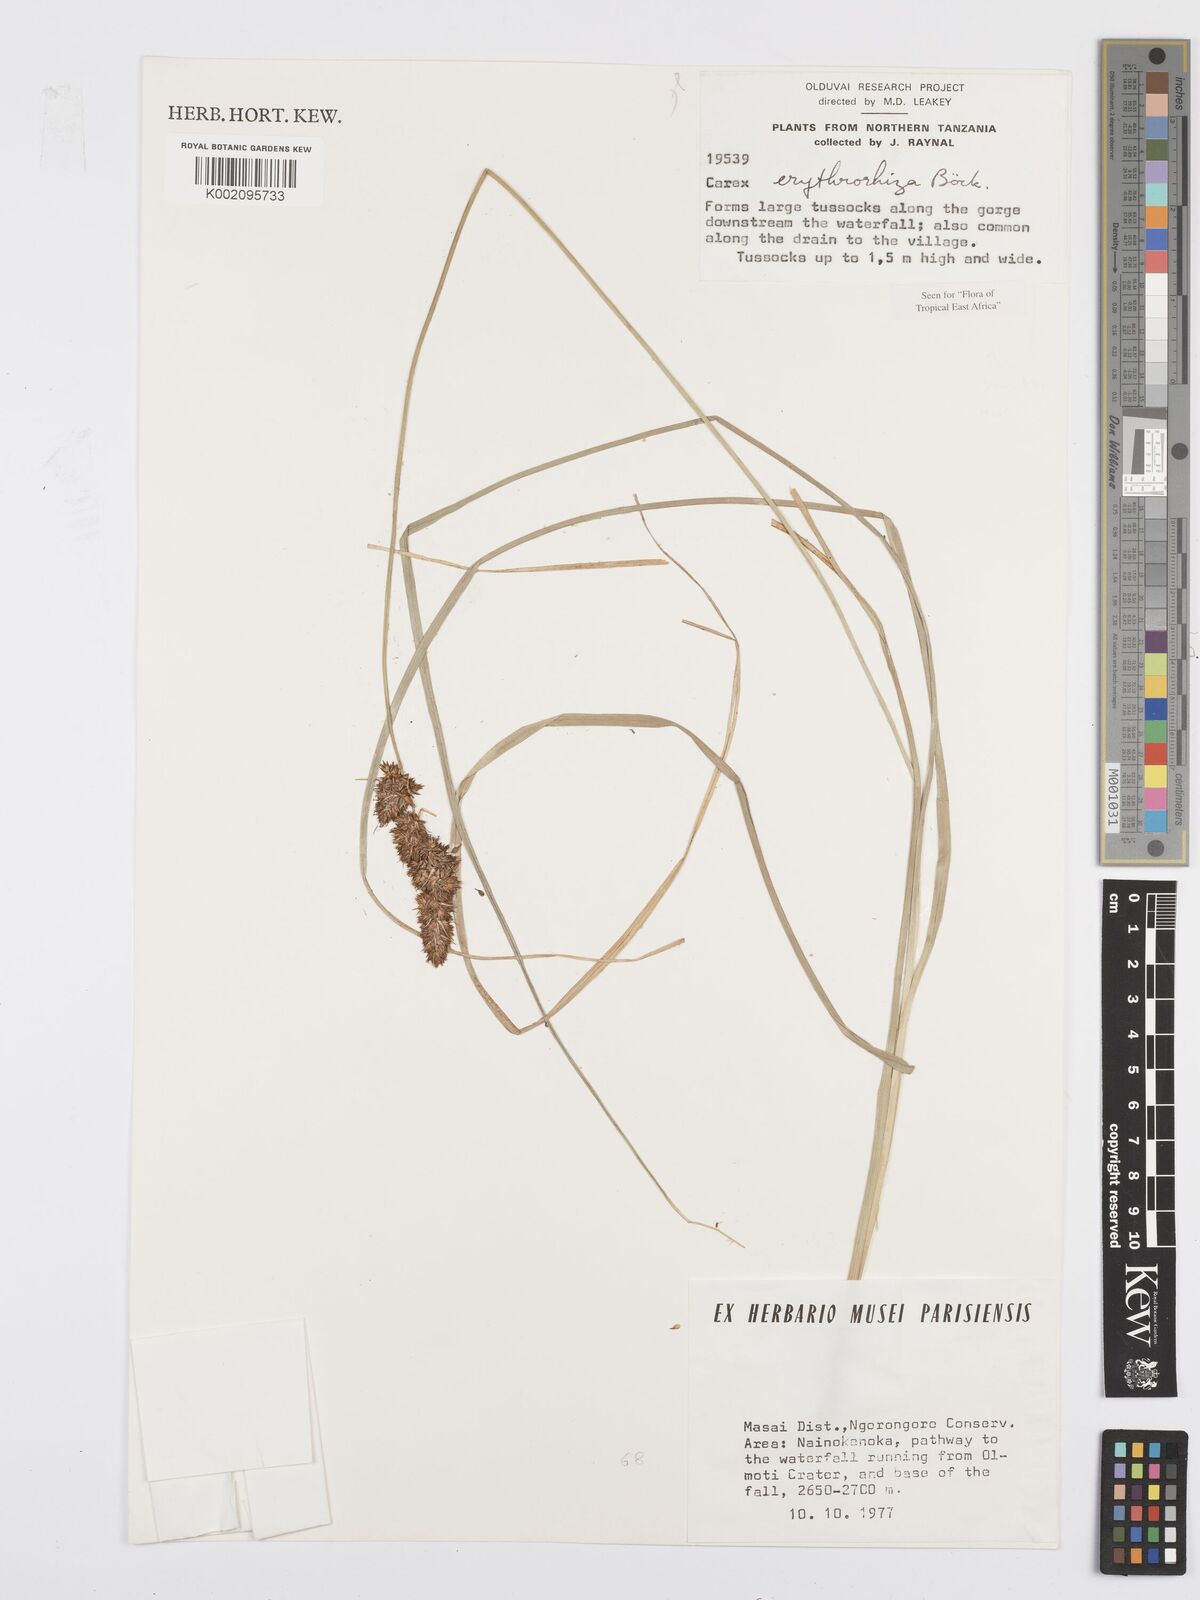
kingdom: Plantae
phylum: Tracheophyta
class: Liliopsida
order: Poales
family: Cyperaceae
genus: Carex
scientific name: Carex erythrorrhiza
